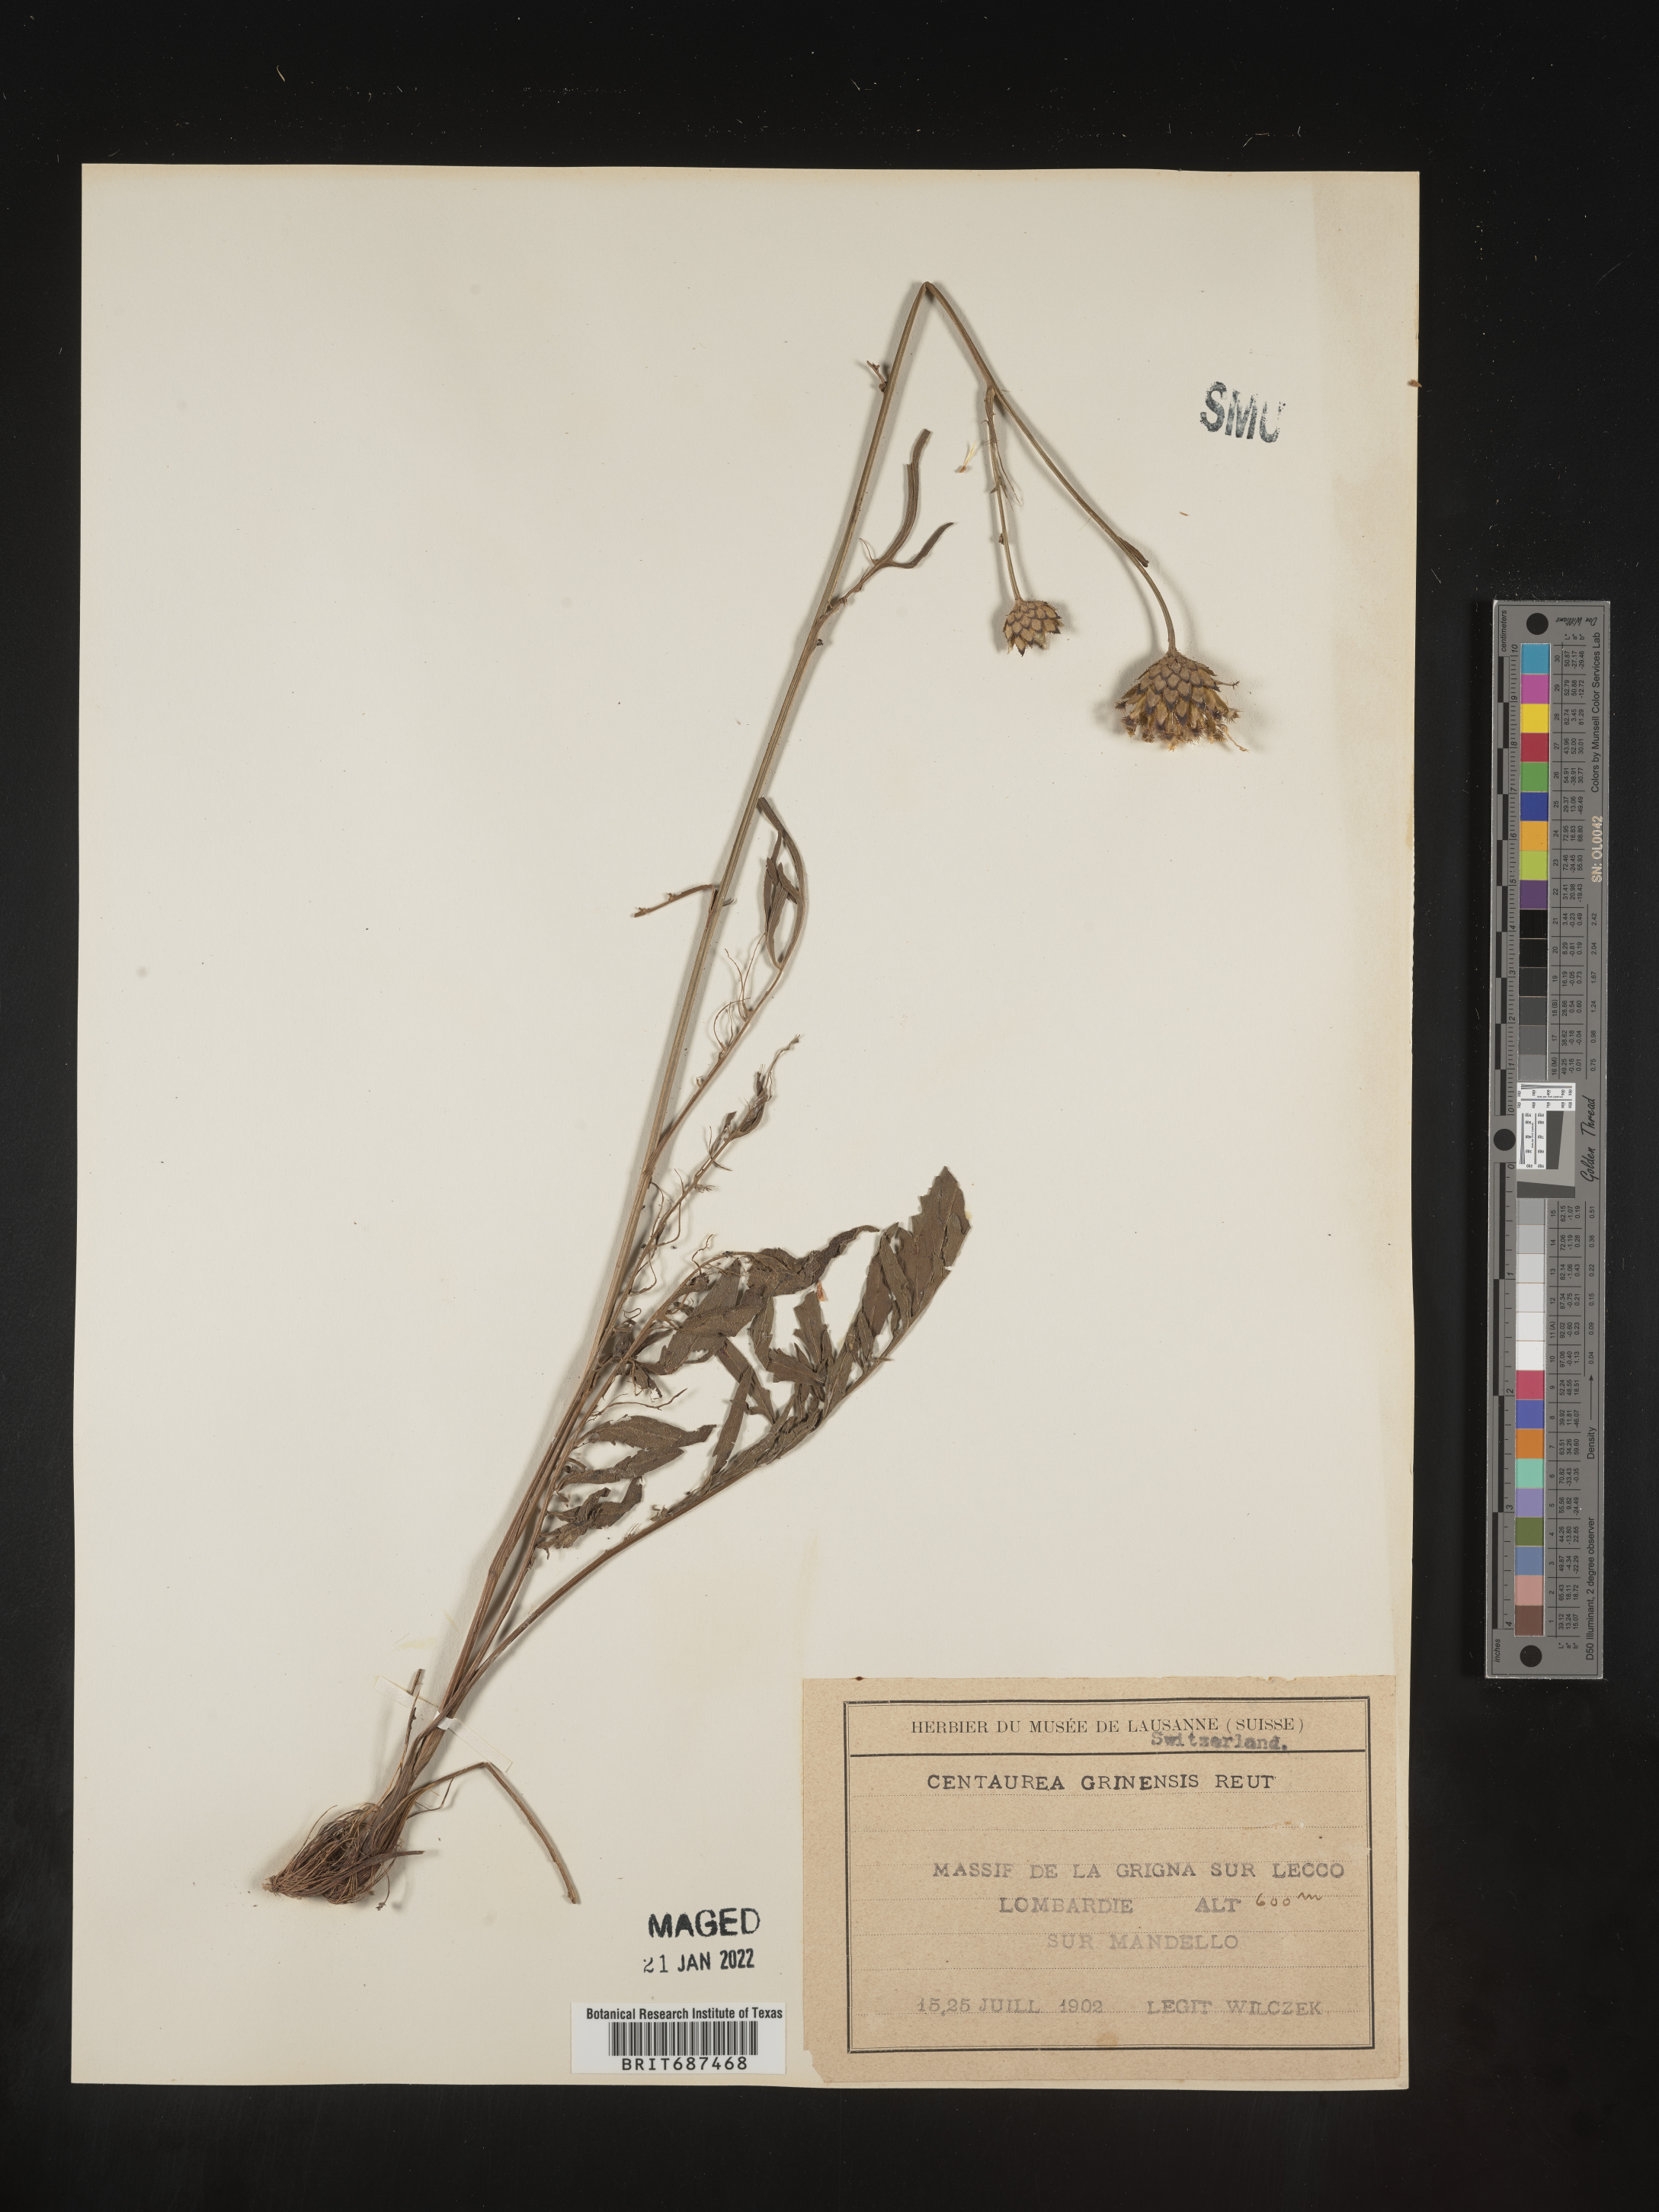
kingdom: Plantae
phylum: Tracheophyta
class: Magnoliopsida
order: Asterales
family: Asteraceae
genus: Centaurea
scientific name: Centaurea
